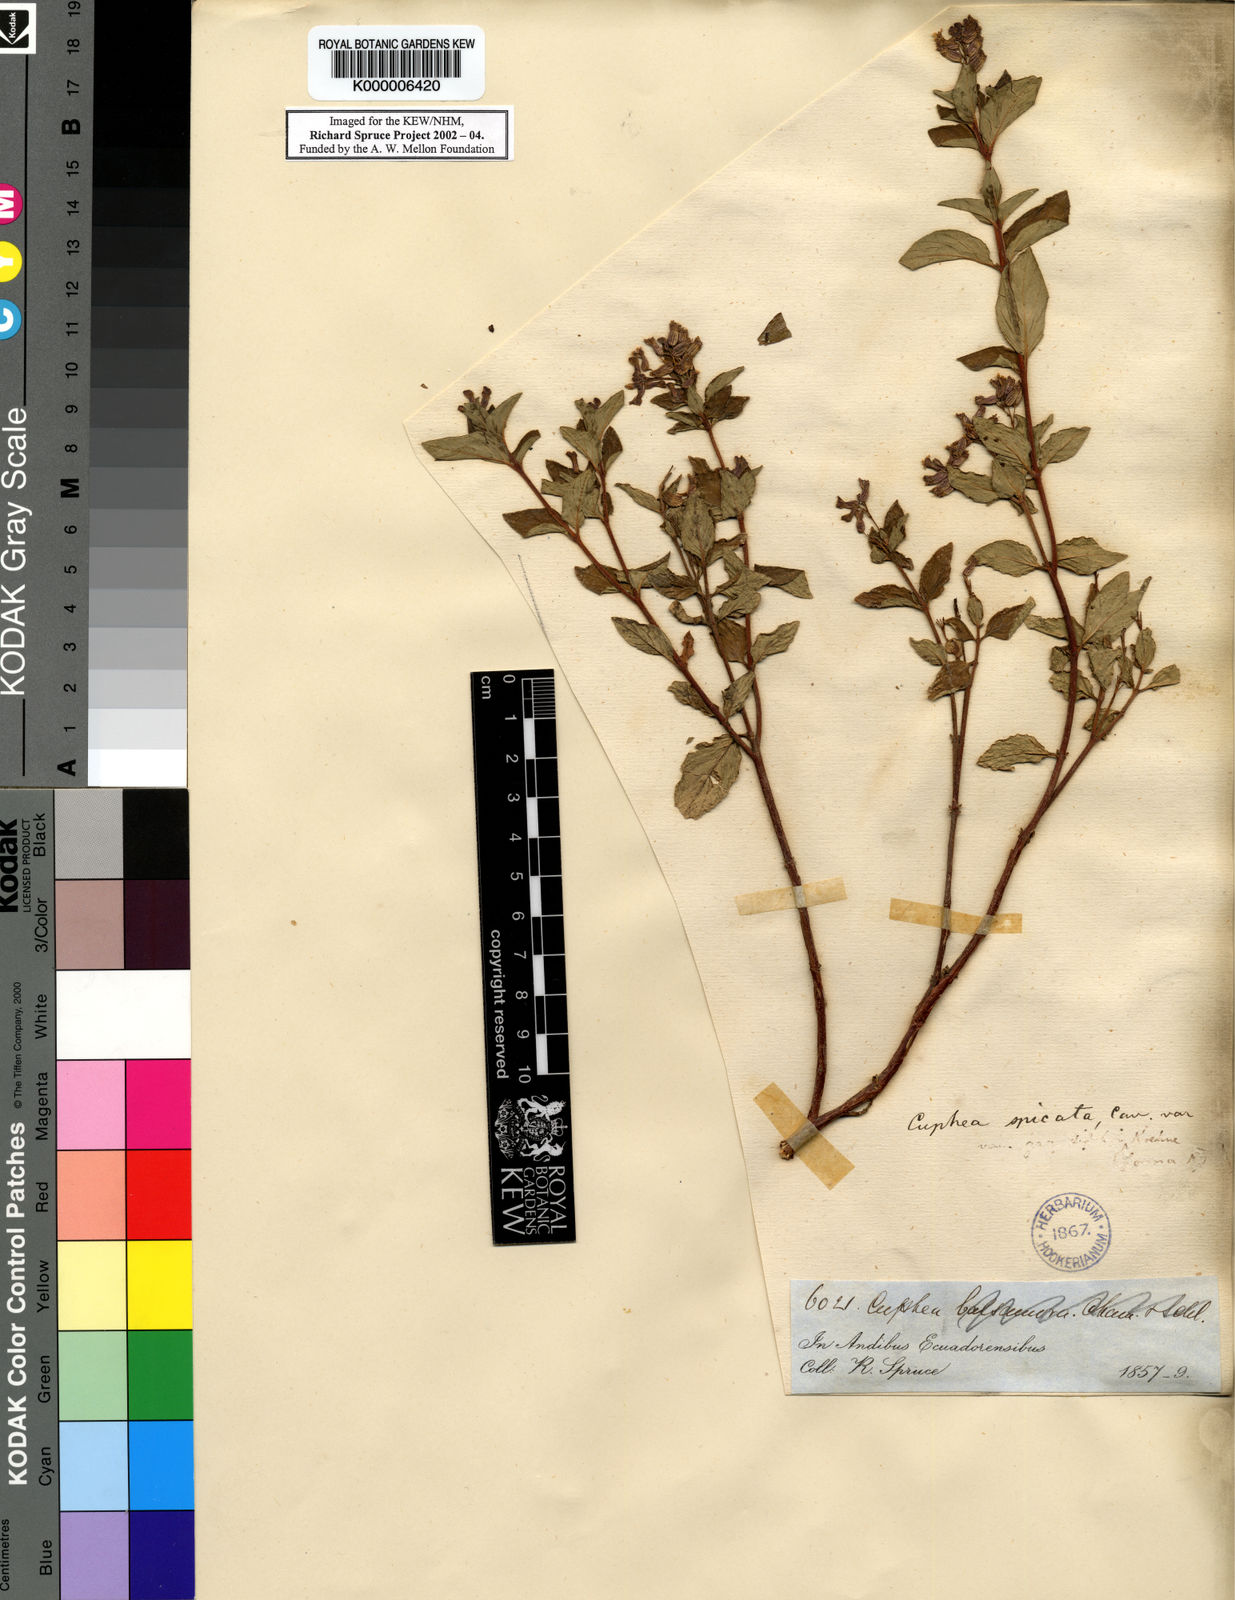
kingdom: Plantae
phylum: Tracheophyta
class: Magnoliopsida
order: Myrtales
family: Lythraceae
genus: Cuphea
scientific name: Cuphea racemosa
